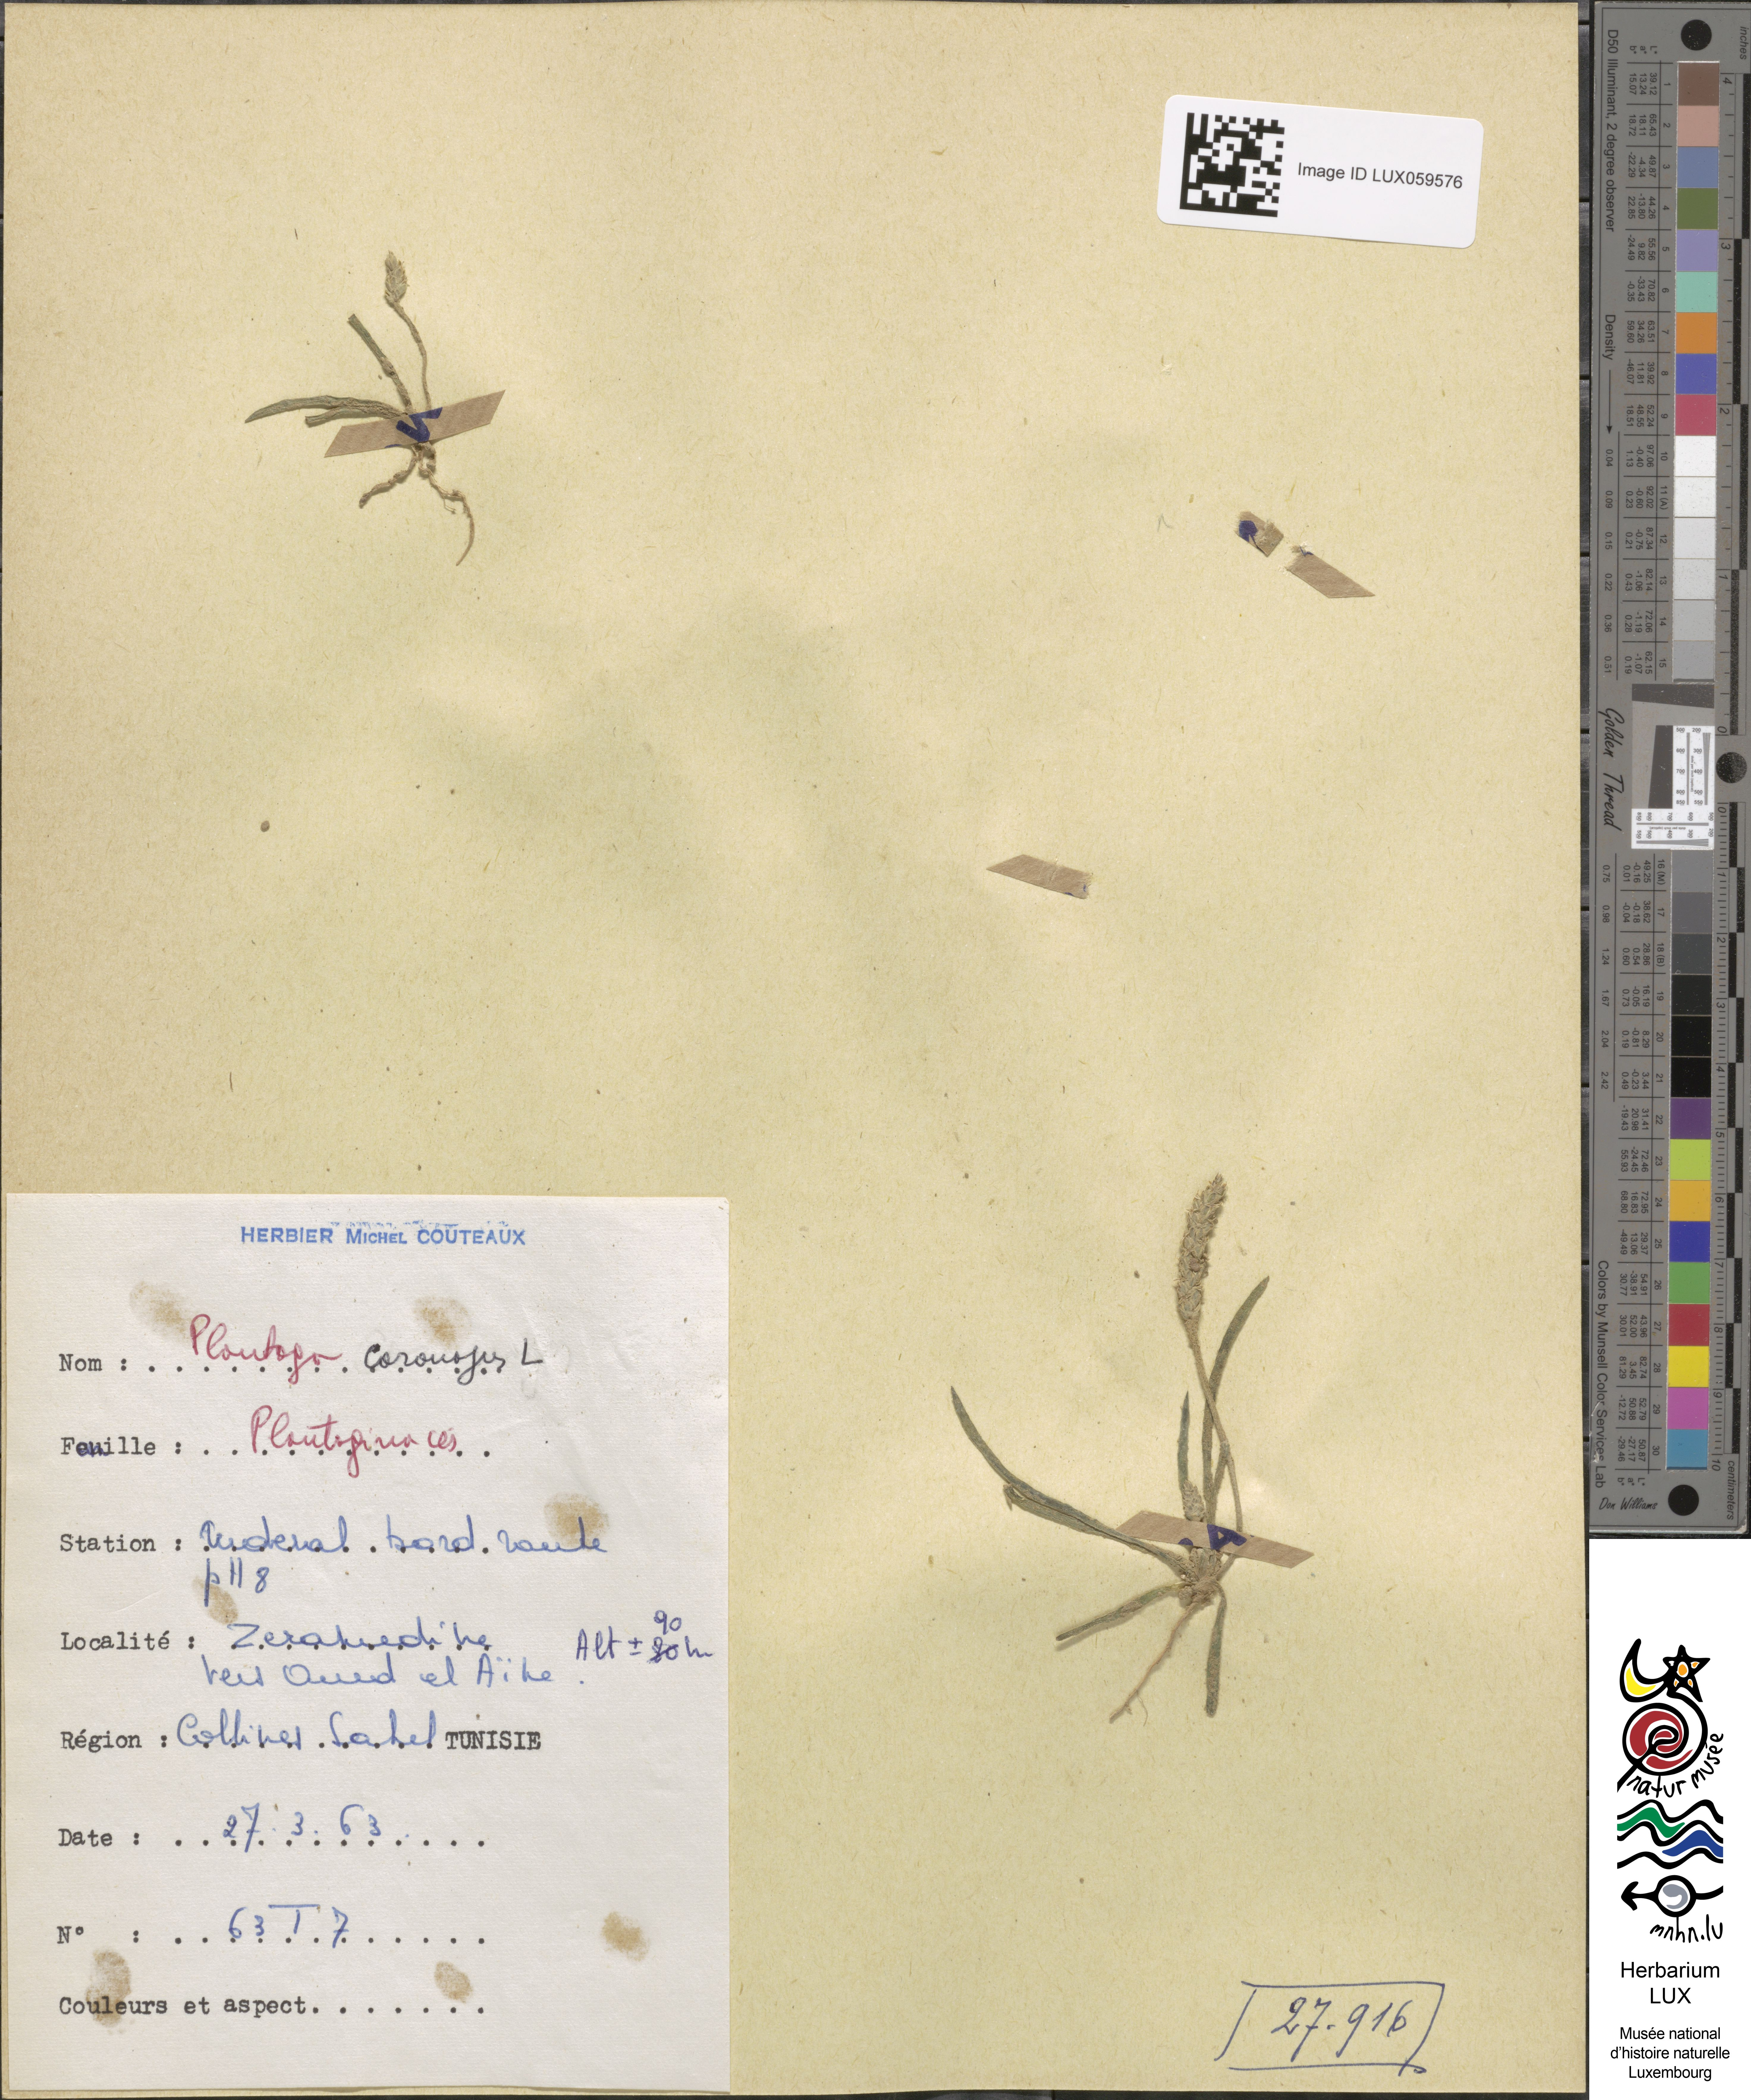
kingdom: Plantae
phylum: Tracheophyta
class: Magnoliopsida
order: Lamiales
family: Plantaginaceae
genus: Plantago
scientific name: Plantago coronopus
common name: Buck's-horn plantain
